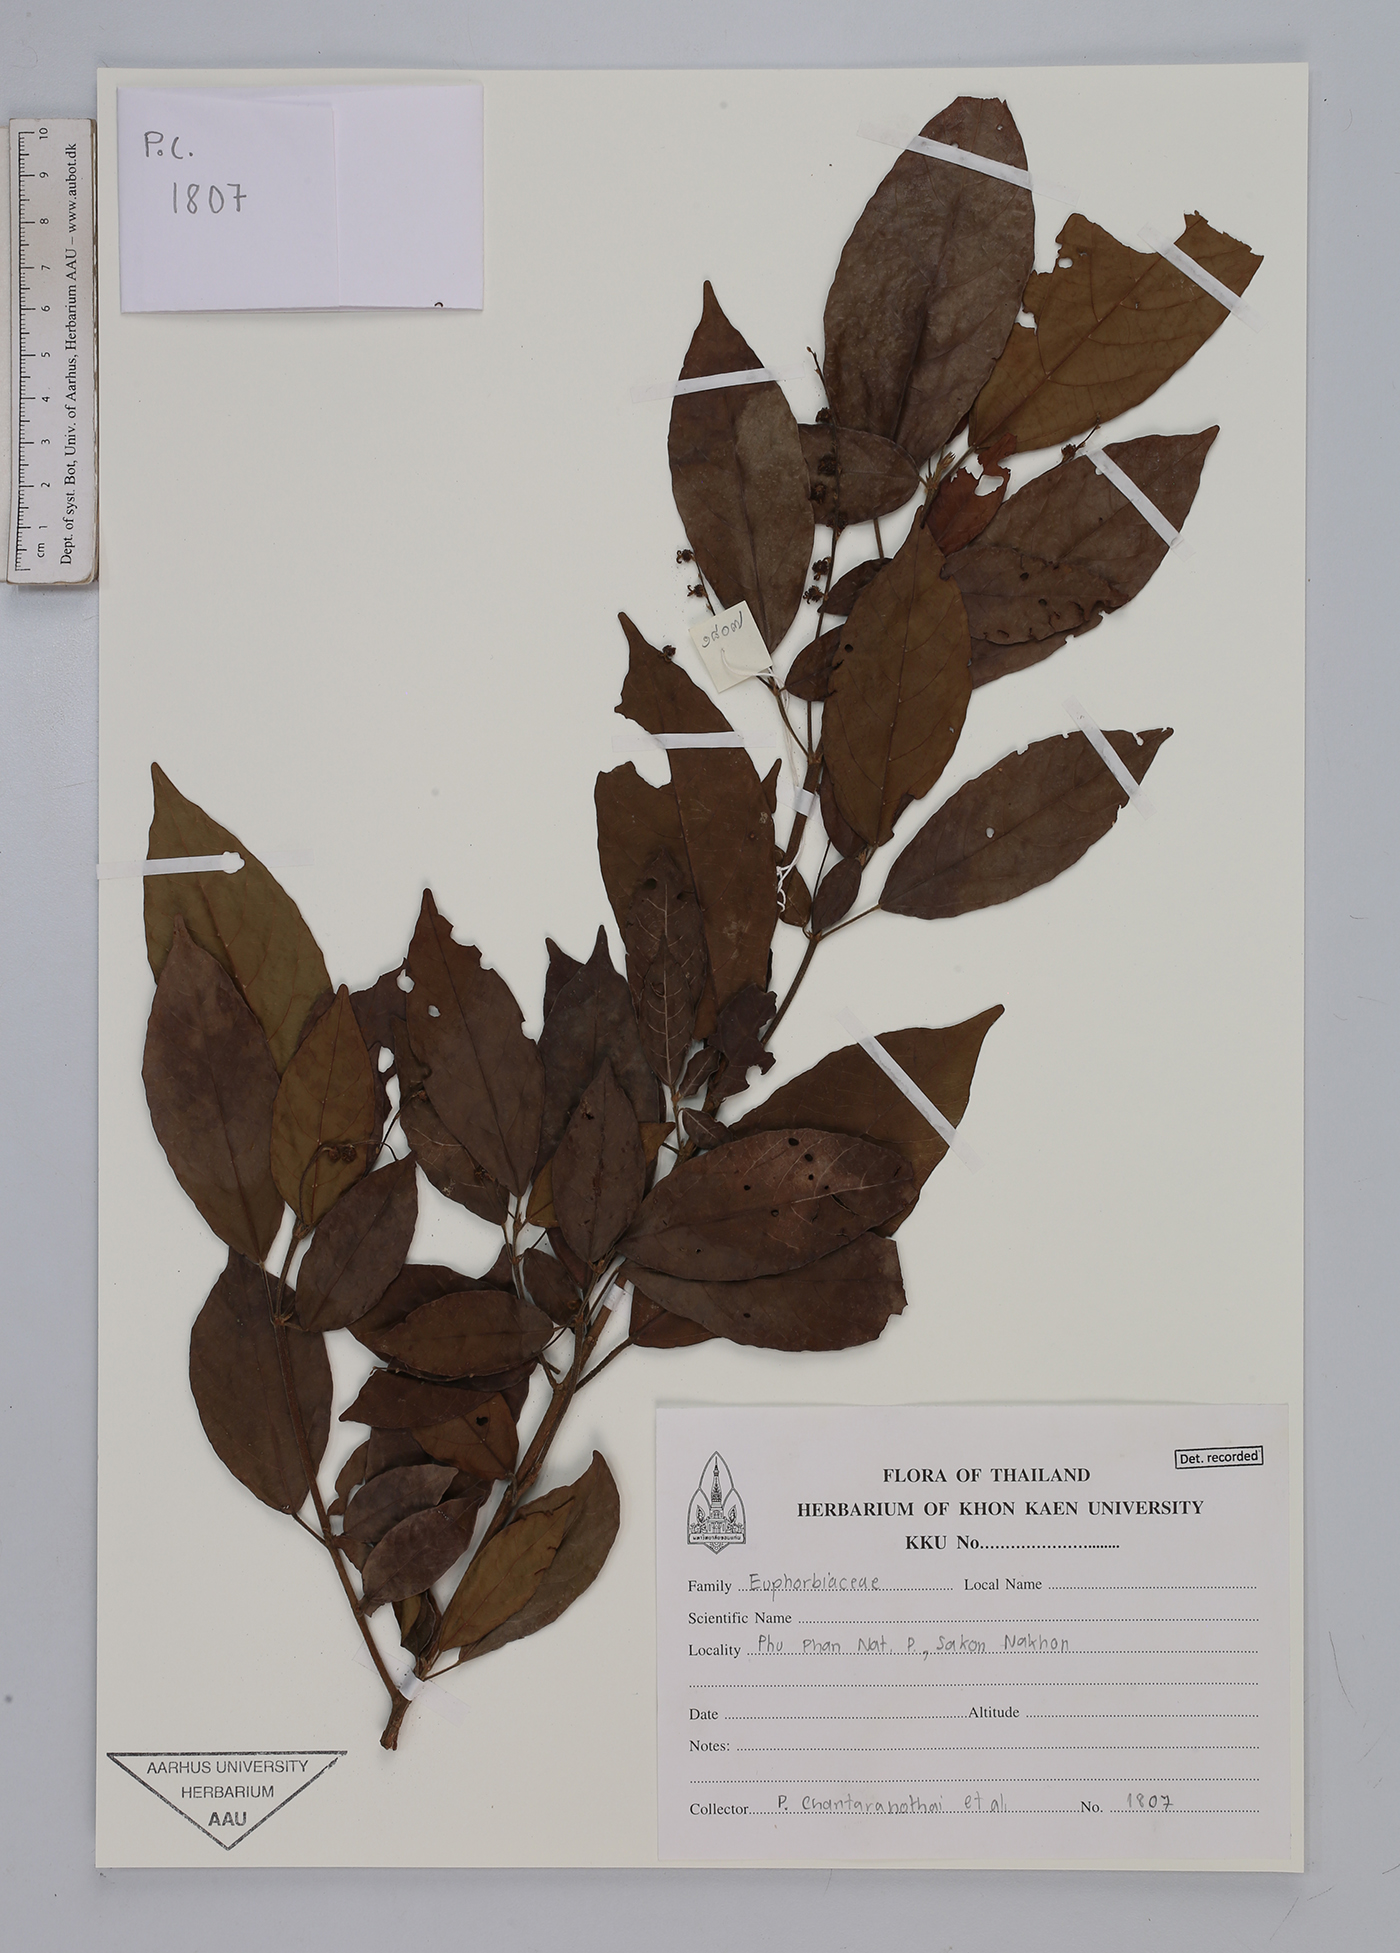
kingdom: Plantae
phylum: Tracheophyta
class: Magnoliopsida
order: Malpighiales
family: Euphorbiaceae
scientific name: Euphorbiaceae
